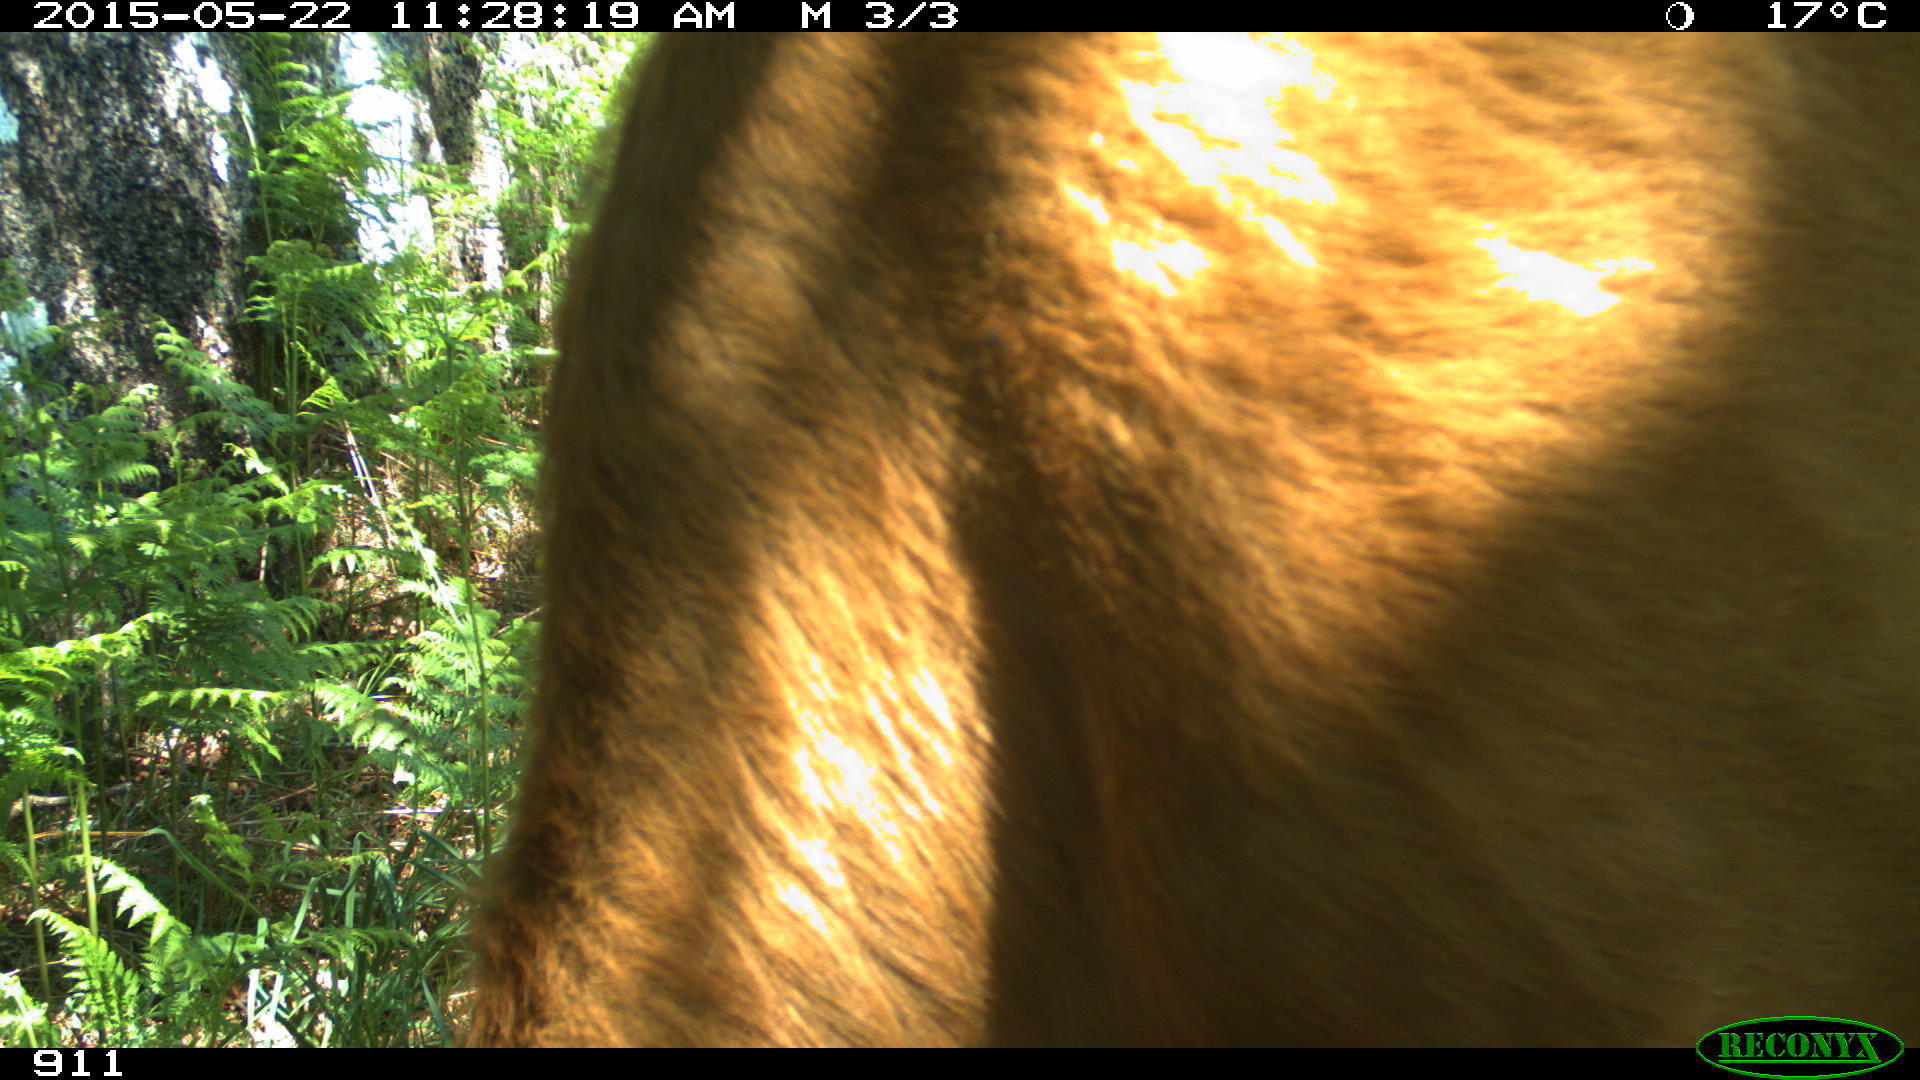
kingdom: Animalia
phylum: Chordata
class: Mammalia
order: Artiodactyla
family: Bovidae
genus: Bos
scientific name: Bos taurus
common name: Domesticated cattle
